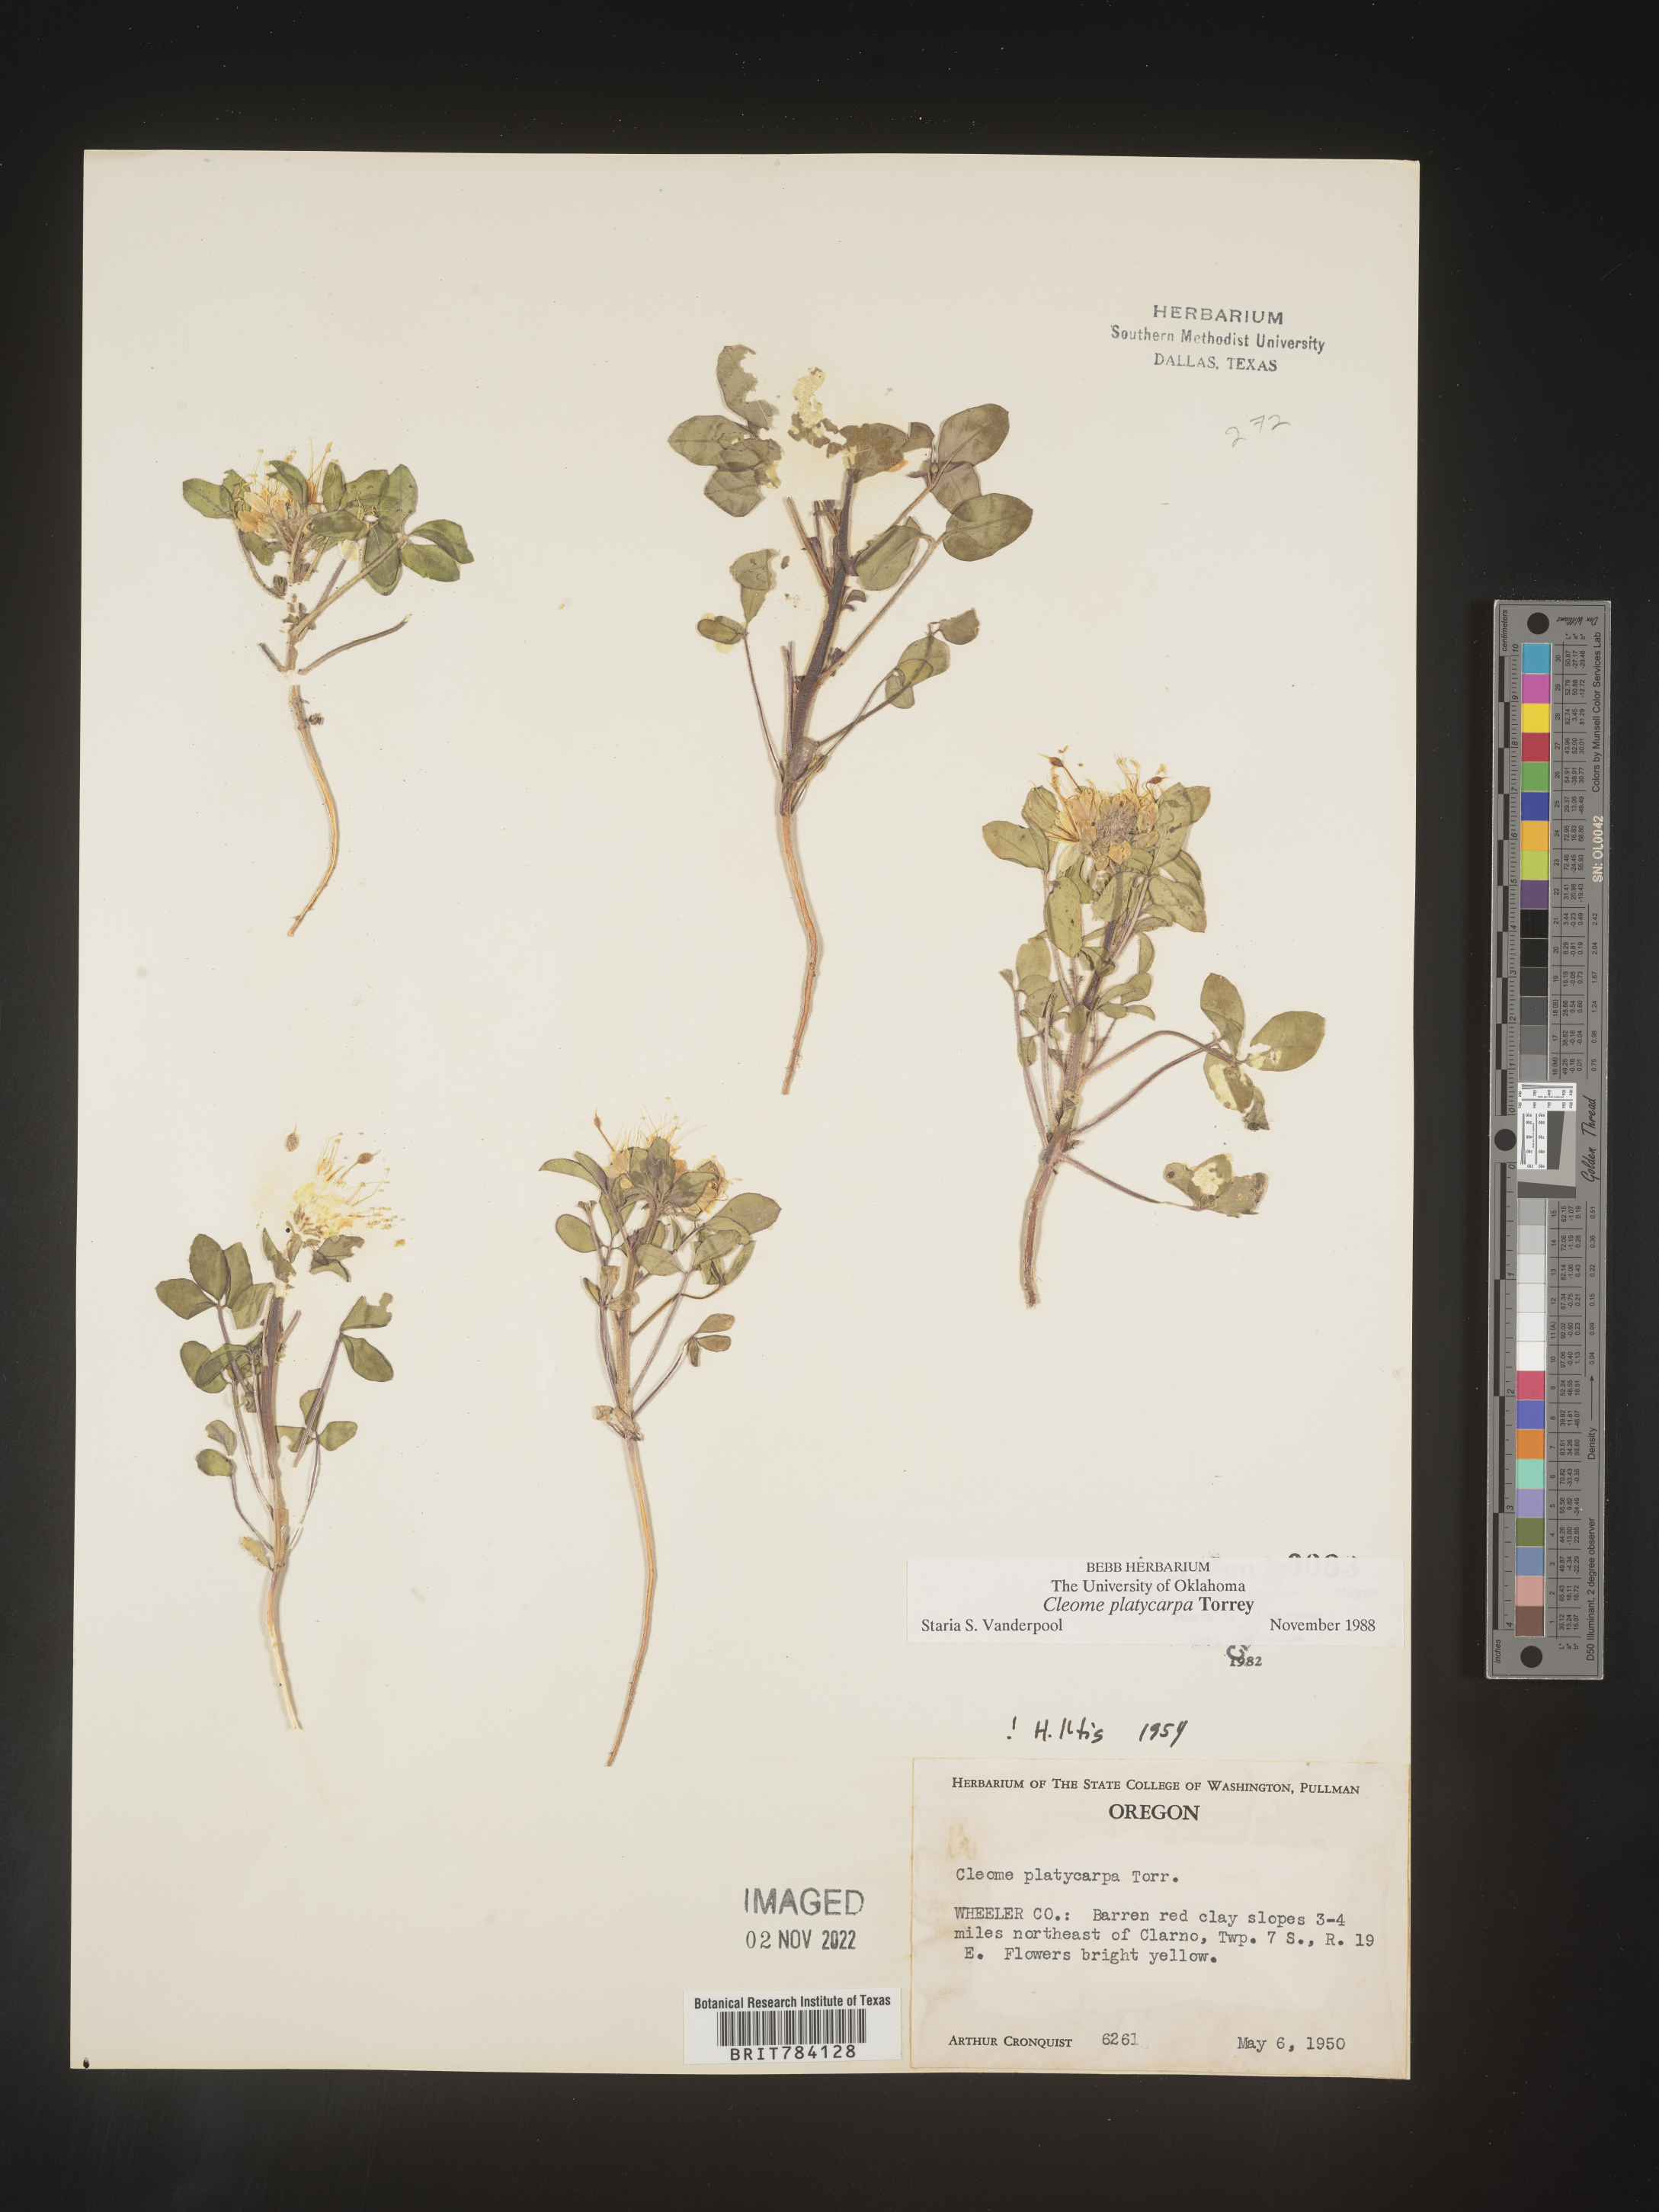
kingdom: Plantae
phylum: Tracheophyta
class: Magnoliopsida
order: Brassicales
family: Cleomaceae
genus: Cleome
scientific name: Cleome
